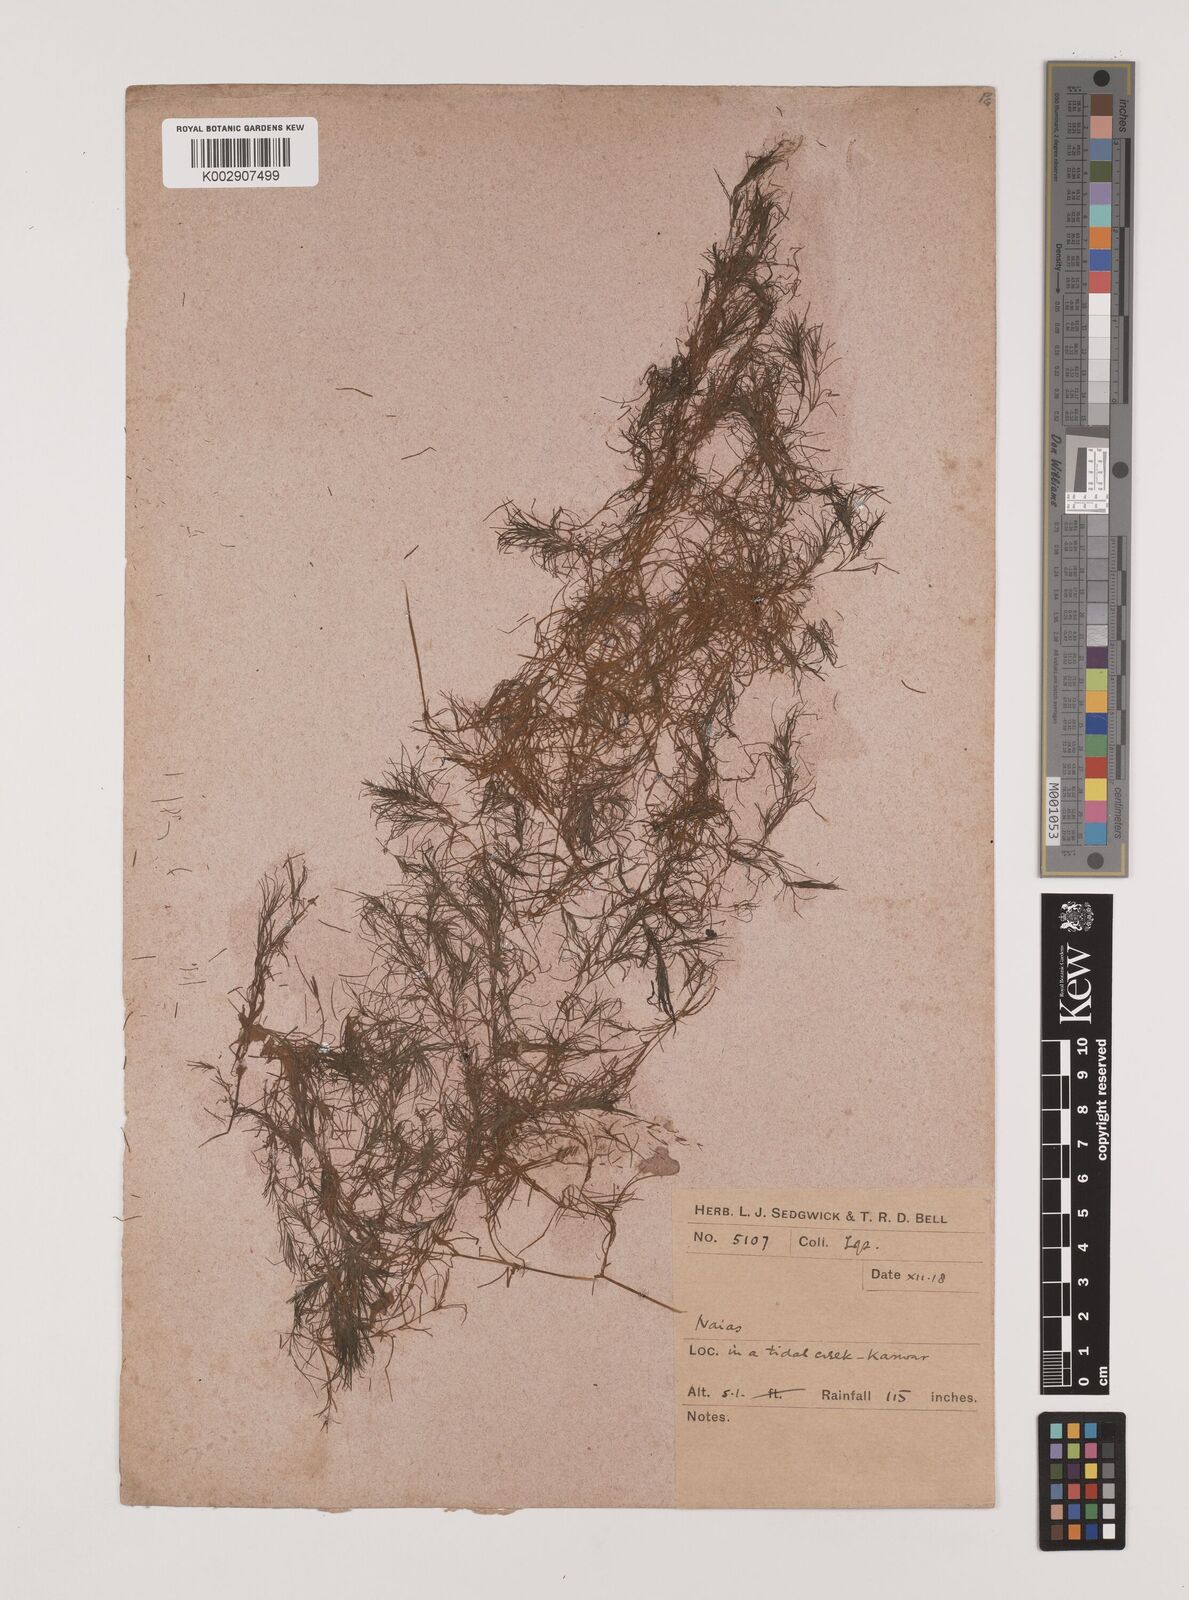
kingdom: Plantae
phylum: Tracheophyta
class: Liliopsida
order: Alismatales
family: Hydrocharitaceae
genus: Najas
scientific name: Najas
